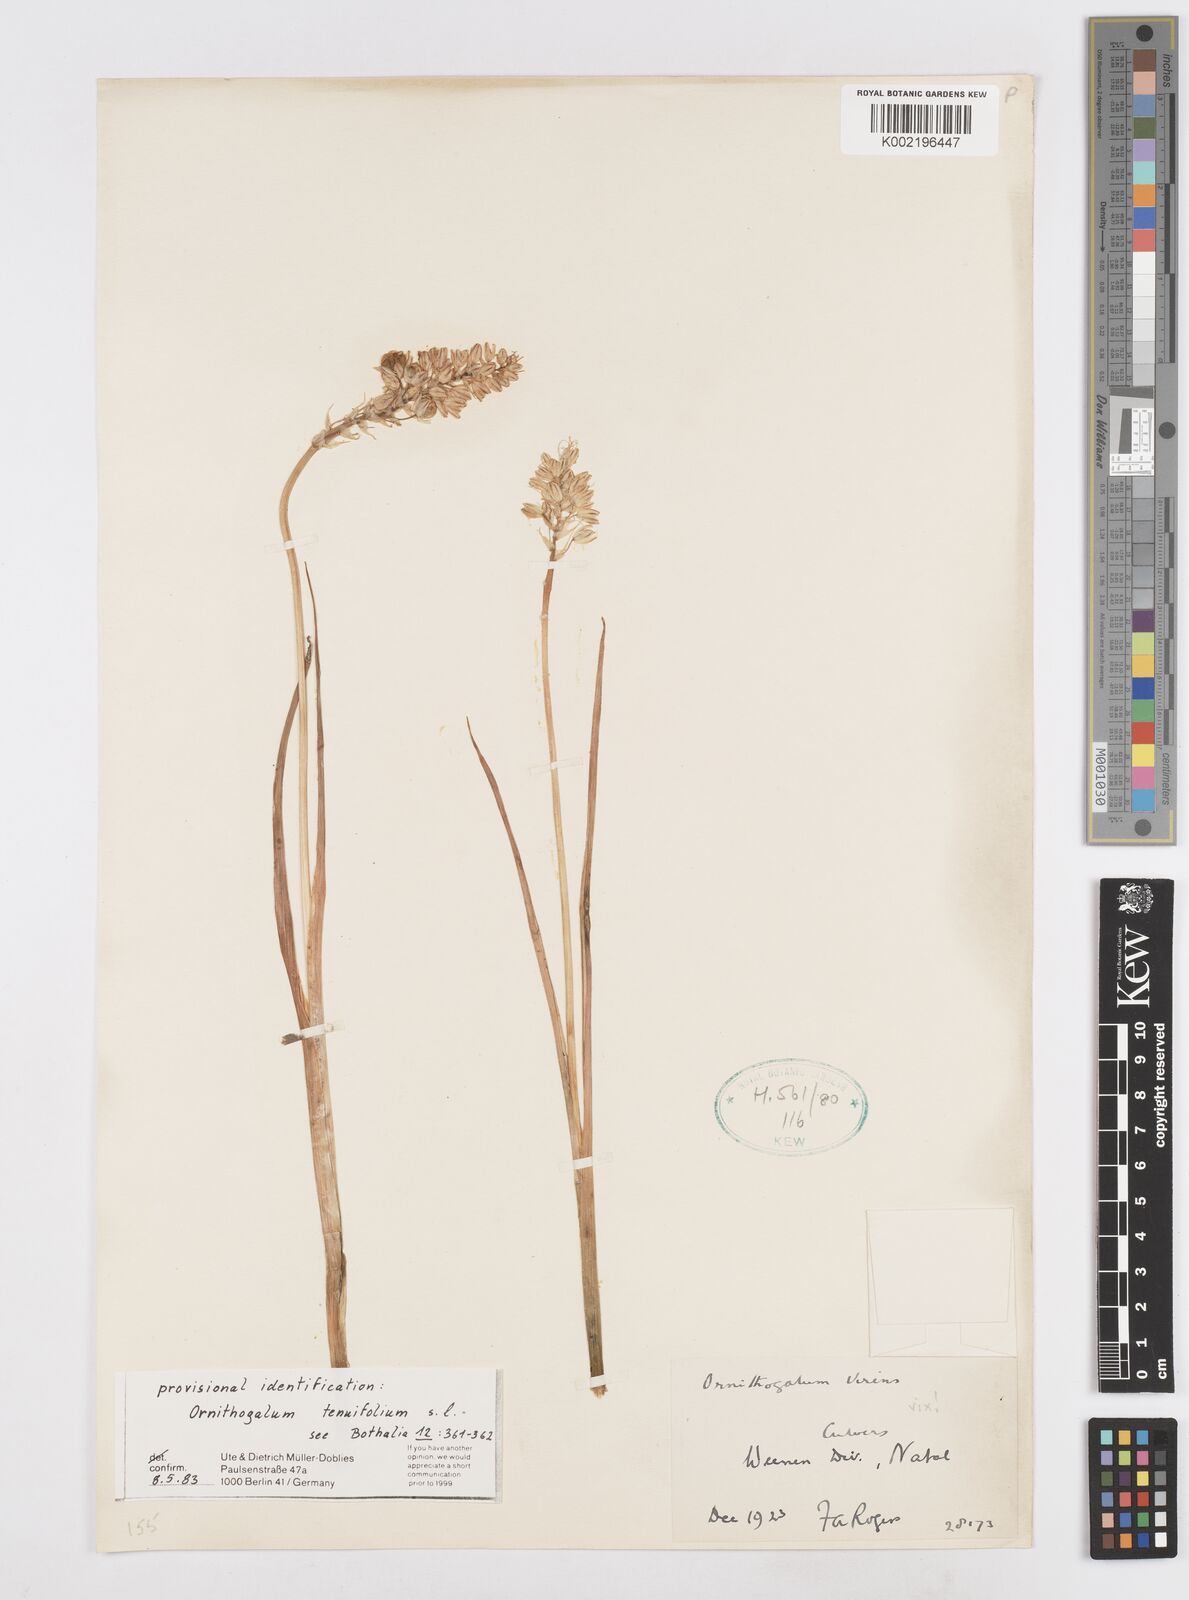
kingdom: Plantae
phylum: Tracheophyta
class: Liliopsida
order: Asparagales
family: Asparagaceae
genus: Albuca
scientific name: Albuca virens
